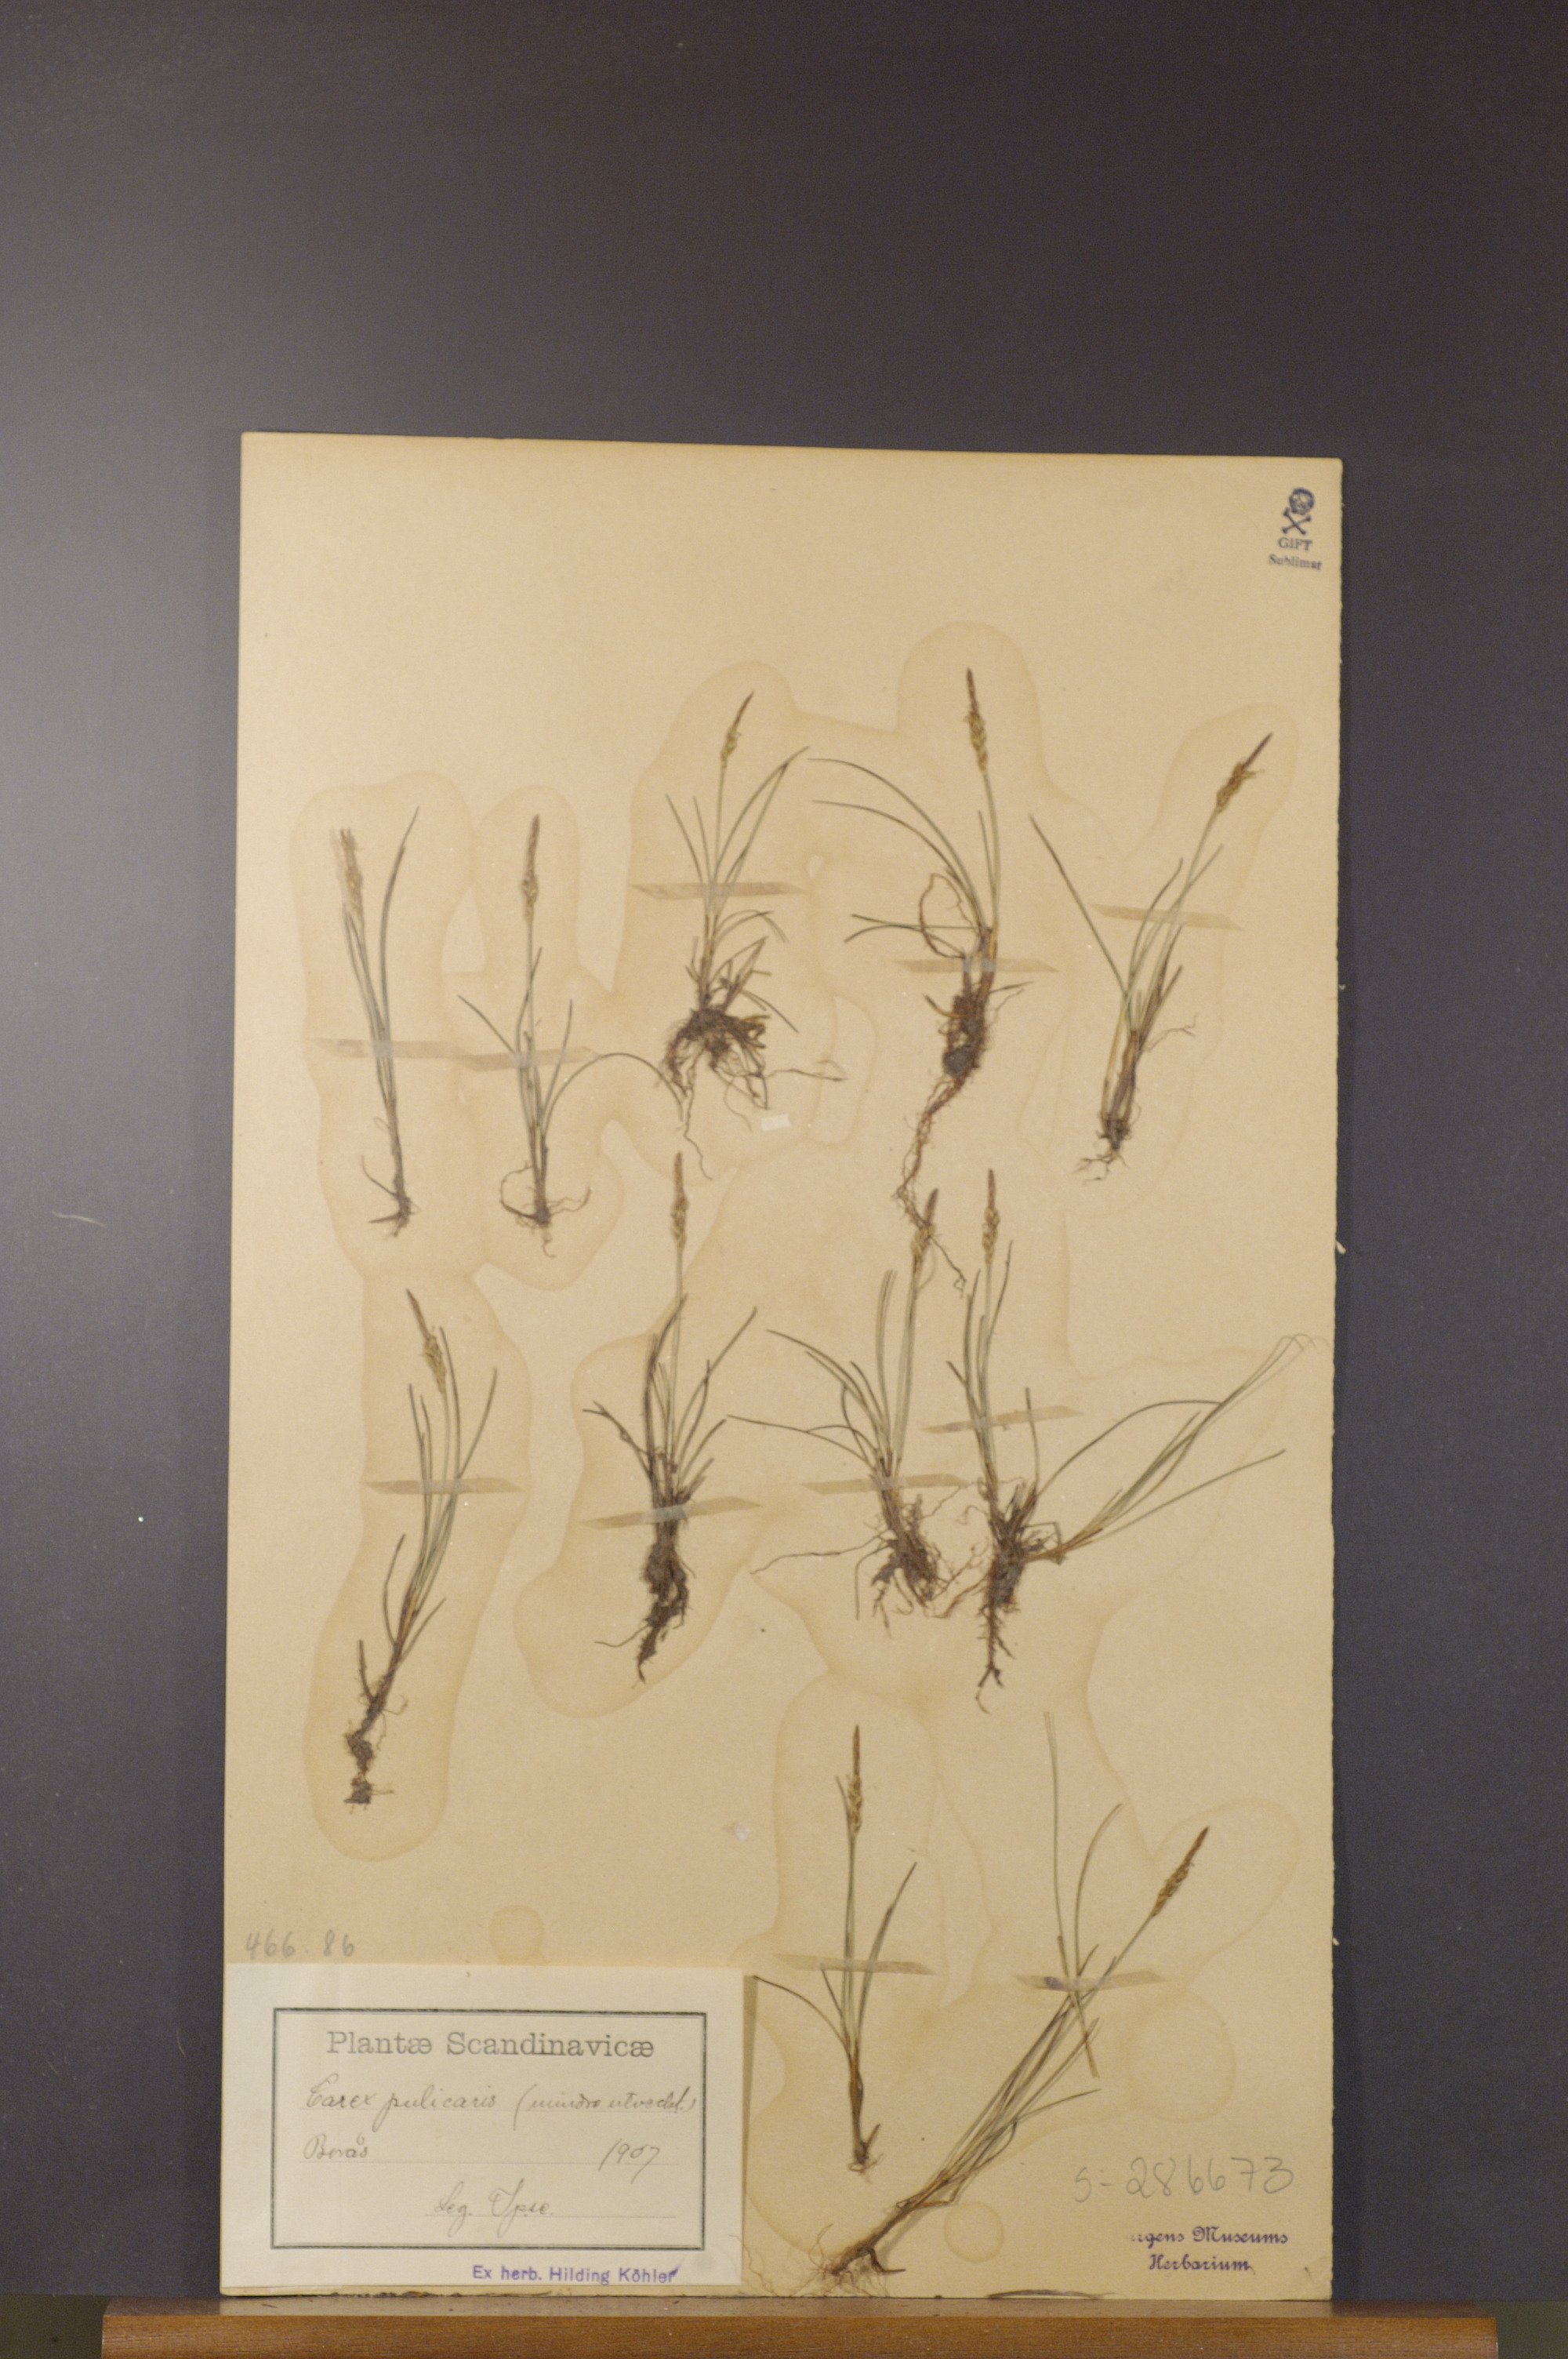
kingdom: Plantae
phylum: Tracheophyta
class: Liliopsida
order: Poales
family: Cyperaceae
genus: Carex
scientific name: Carex pulicaris
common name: Flea sedge
